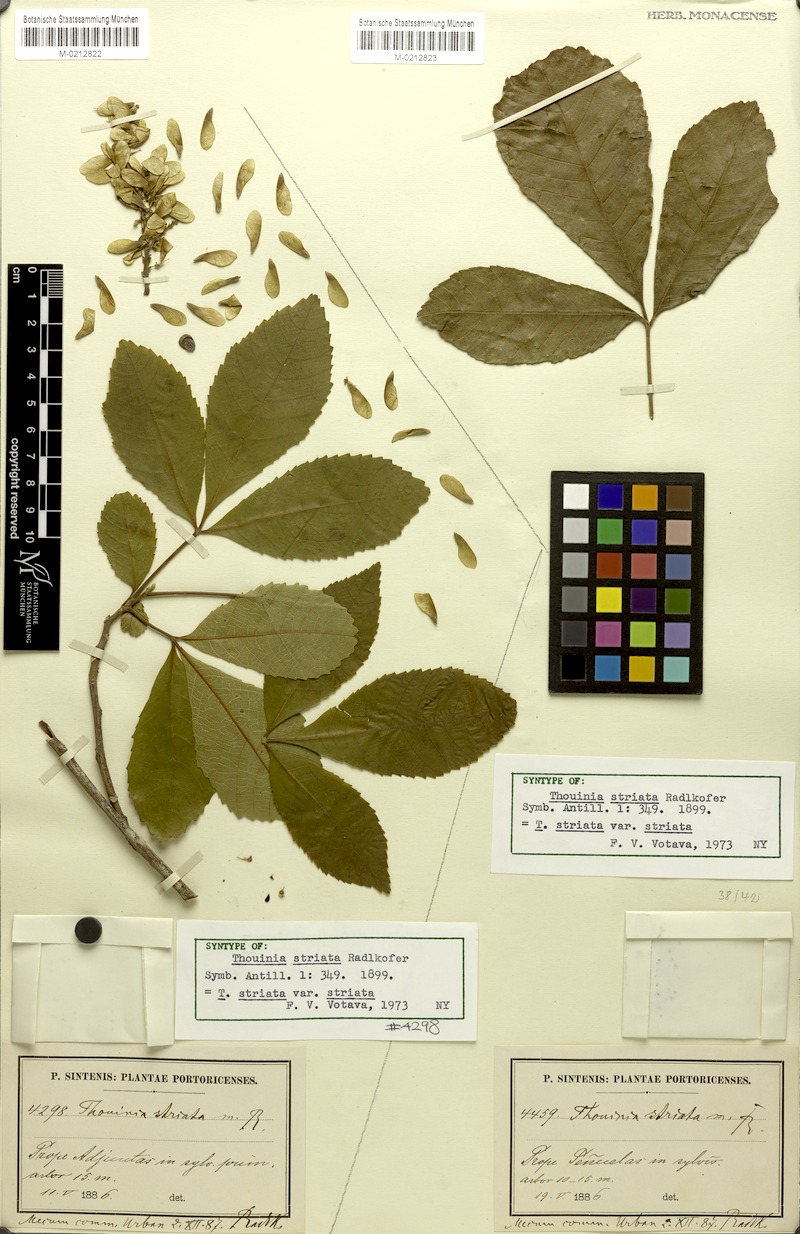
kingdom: Plantae
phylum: Tracheophyta
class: Magnoliopsida
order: Sapindales
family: Sapindaceae
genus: Thouinia
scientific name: Thouinia striata
